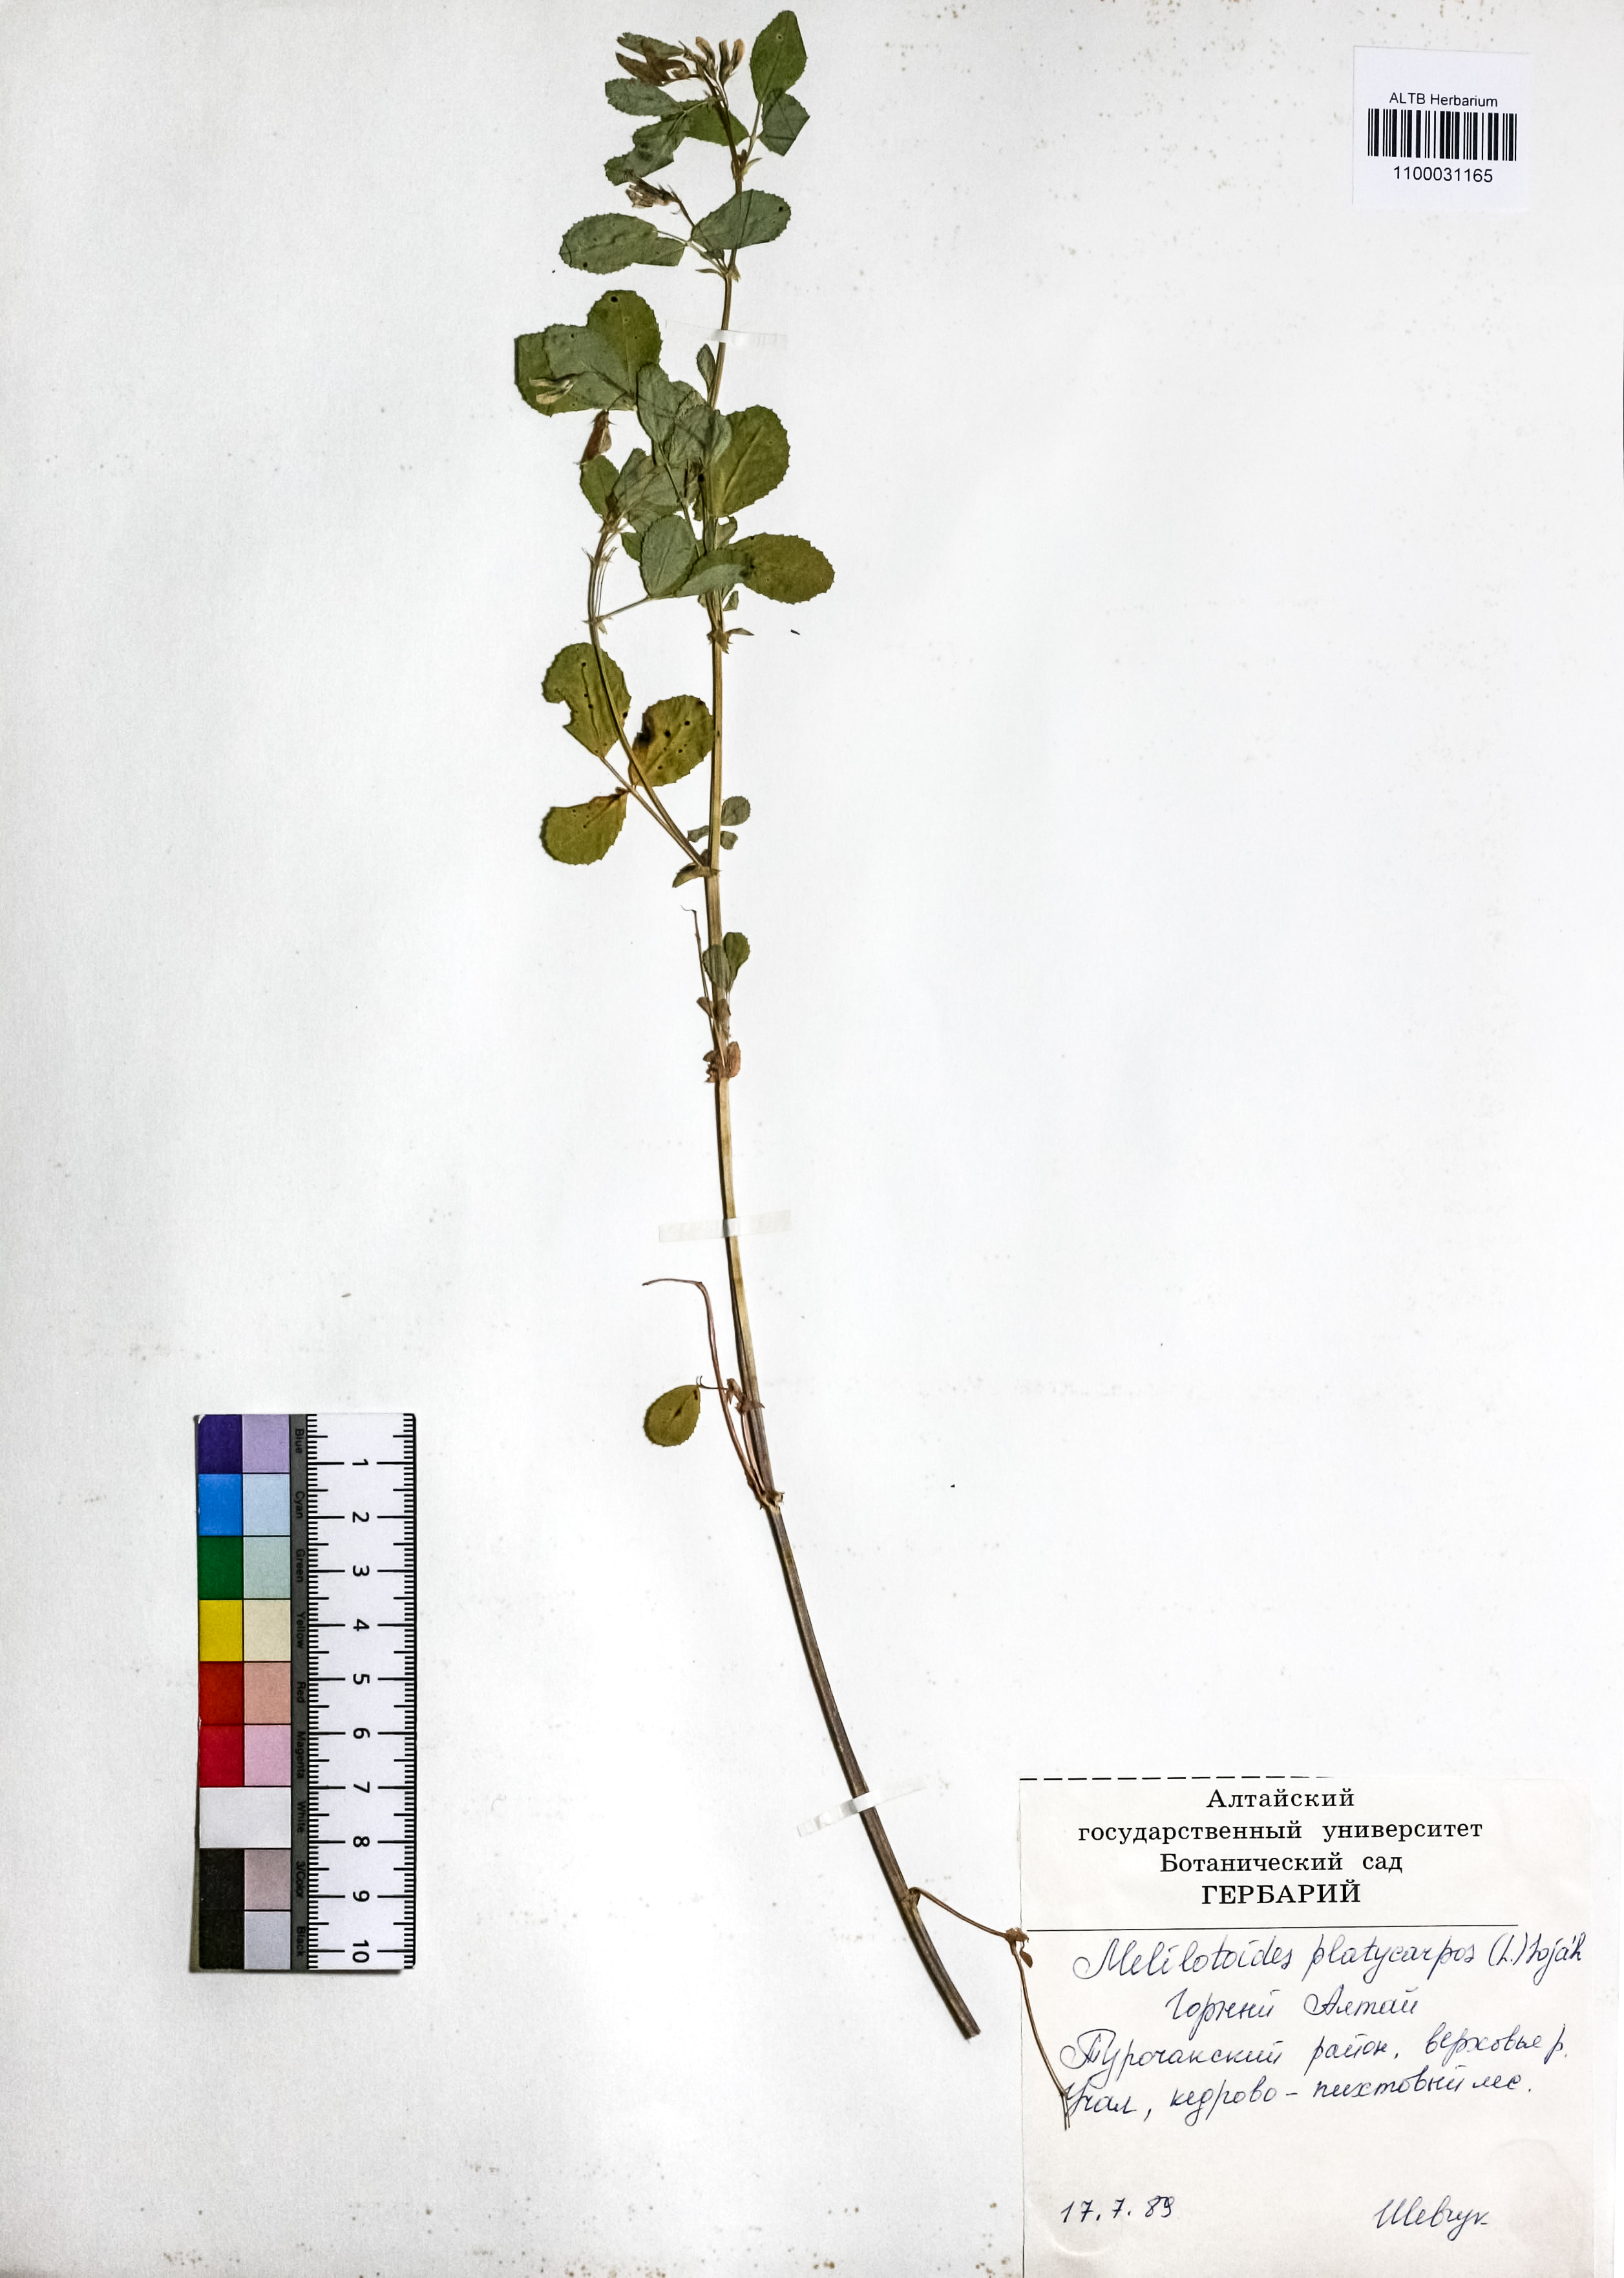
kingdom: Plantae
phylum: Tracheophyta
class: Magnoliopsida
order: Fabales
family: Fabaceae
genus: Medicago
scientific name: Medicago platycarpos
